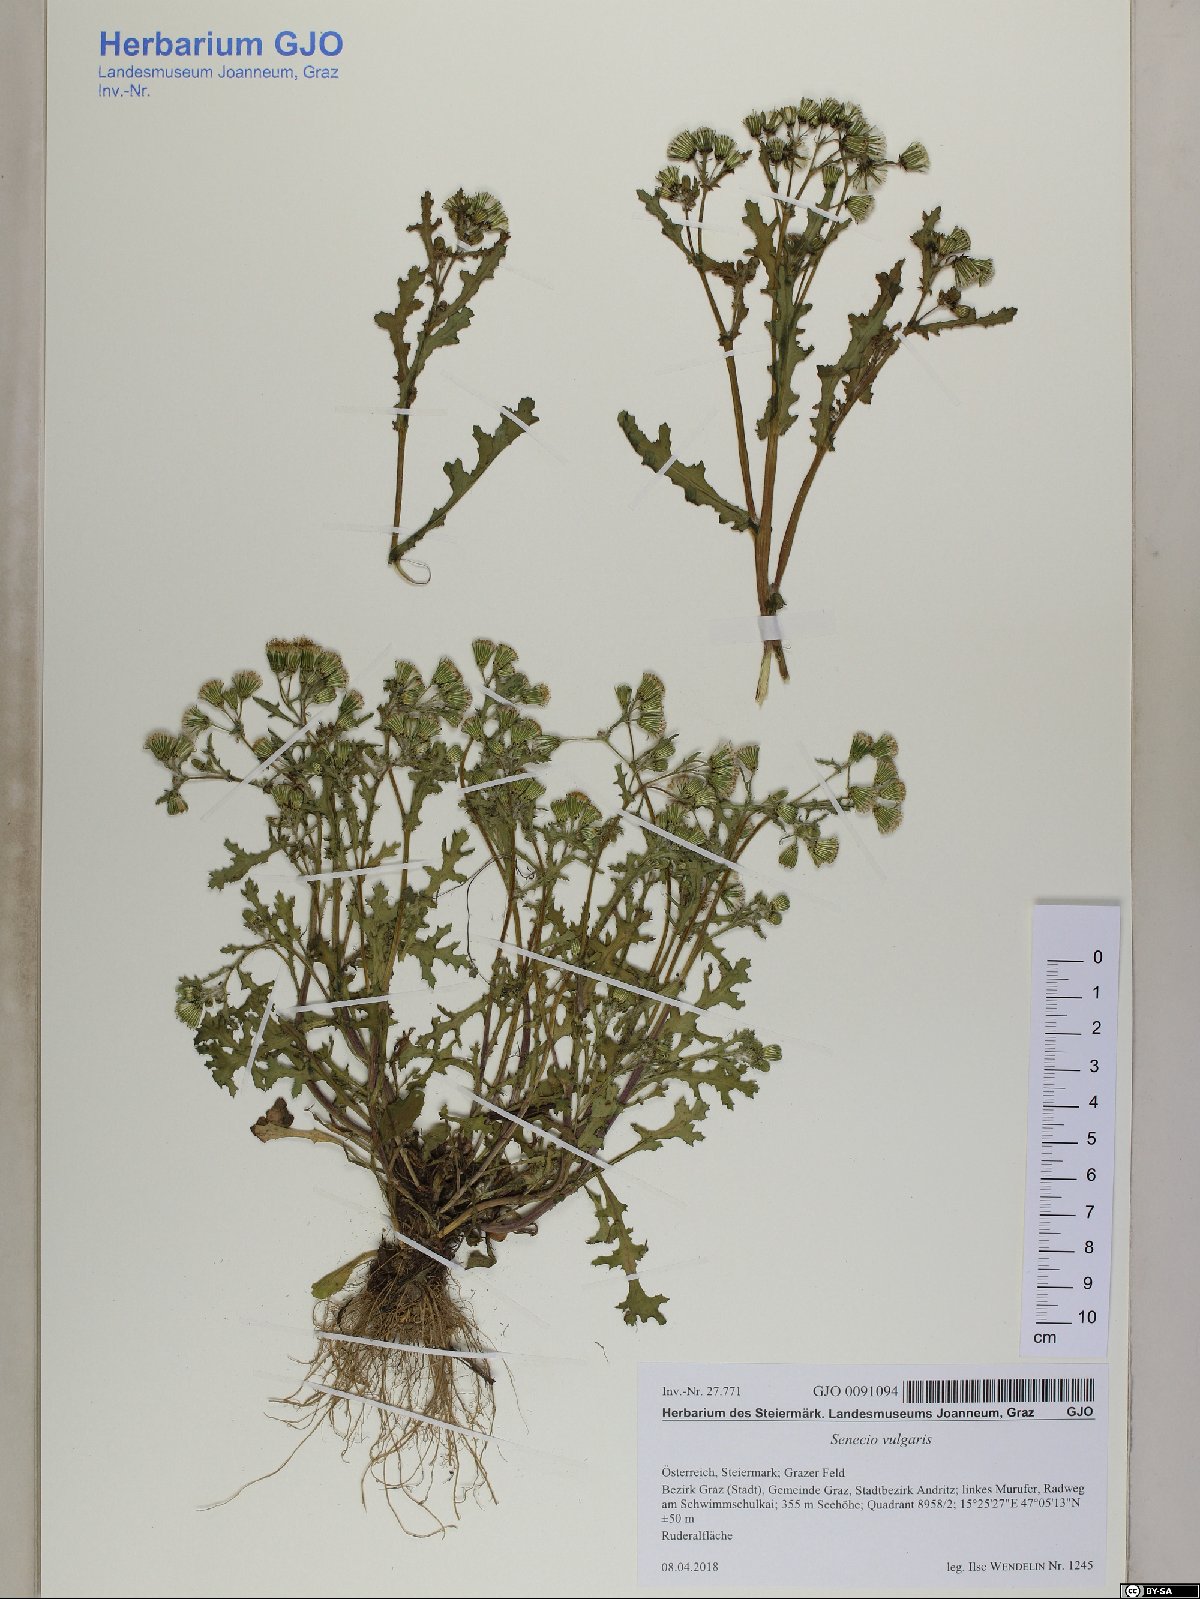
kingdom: Plantae
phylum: Tracheophyta
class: Magnoliopsida
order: Asterales
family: Asteraceae
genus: Senecio
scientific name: Senecio vulgaris
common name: Old-man-in-the-spring
